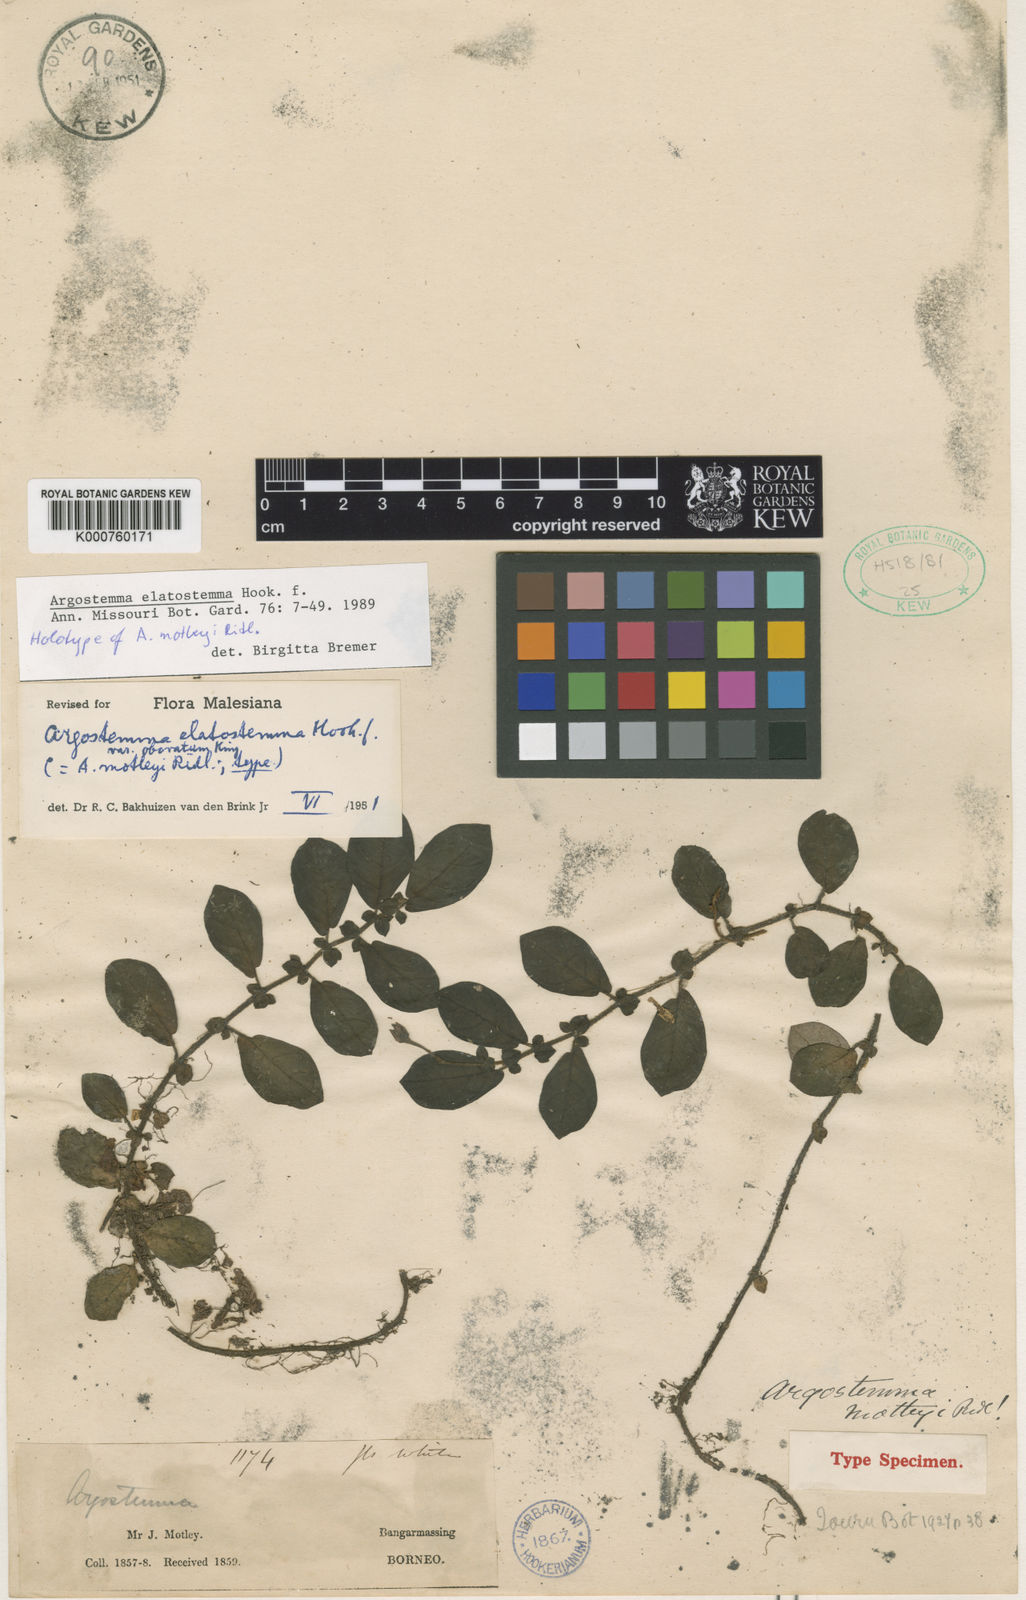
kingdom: Plantae
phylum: Tracheophyta
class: Magnoliopsida
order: Gentianales
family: Rubiaceae
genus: Argostemma
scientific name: Argostemma elatostemma
